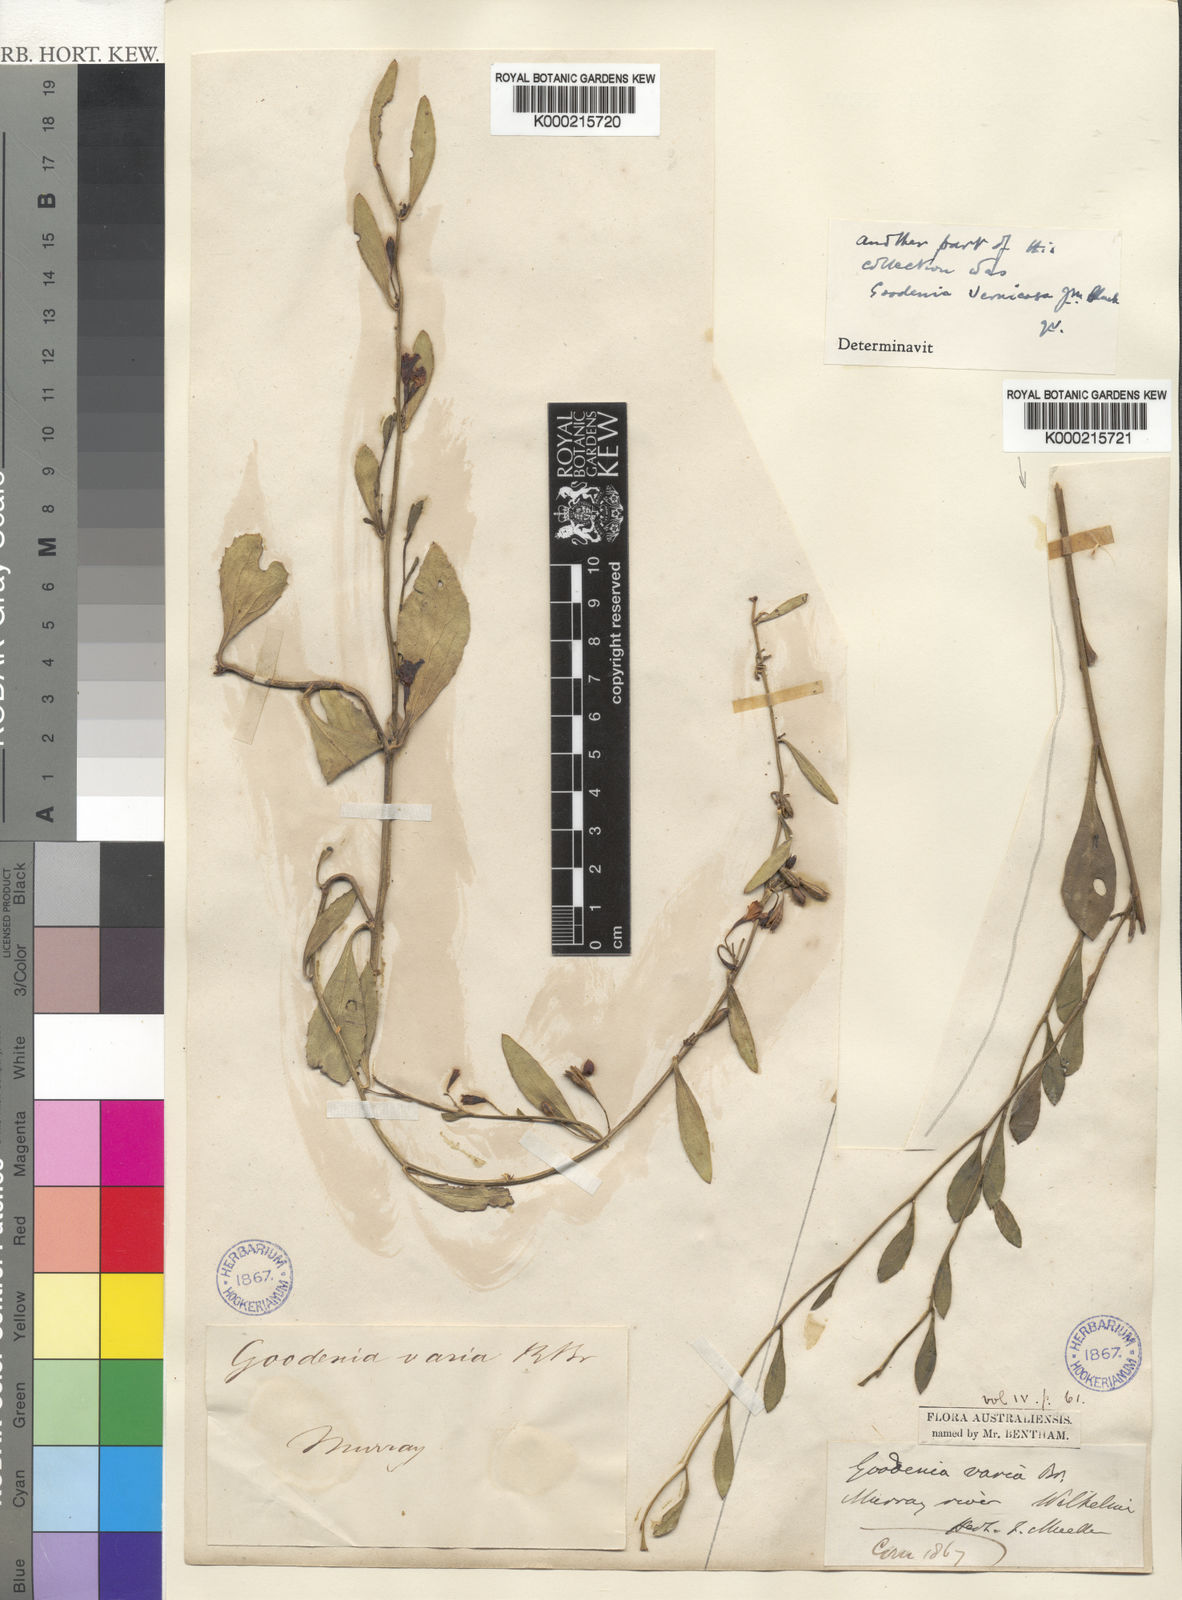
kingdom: Plantae
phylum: Tracheophyta
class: Magnoliopsida
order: Asterales
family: Goodeniaceae
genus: Goodenia
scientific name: Goodenia varia
